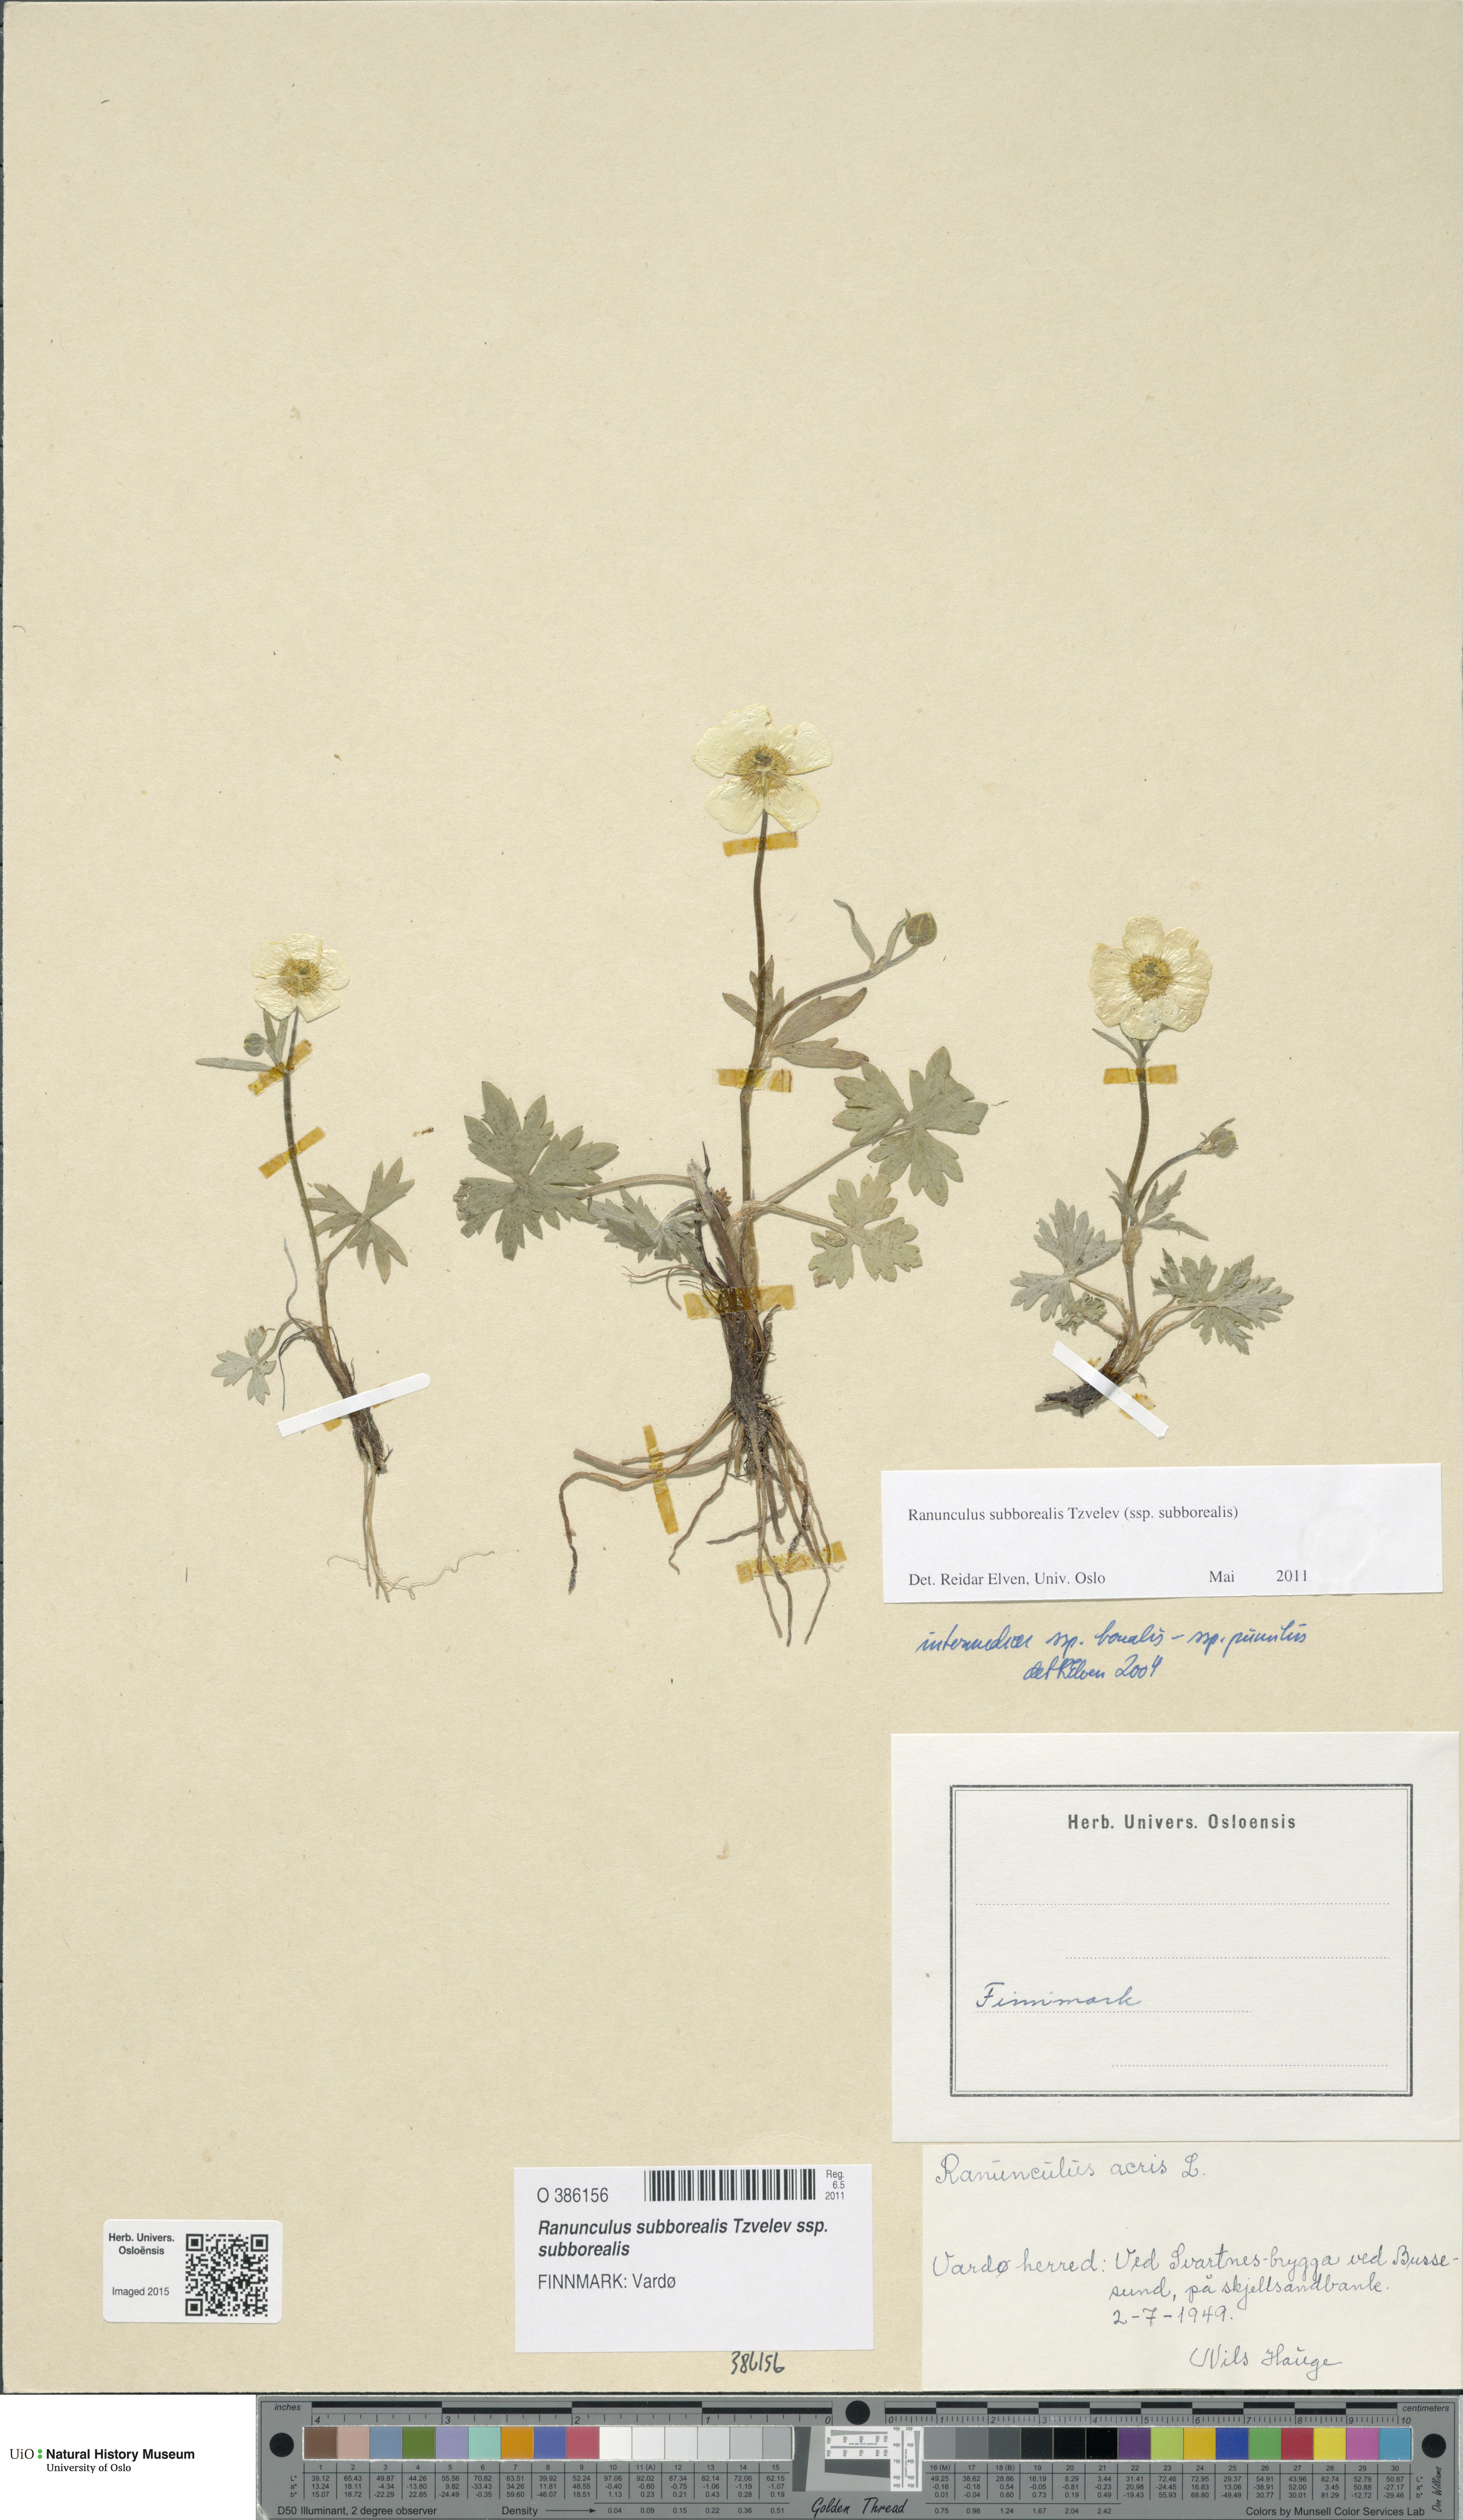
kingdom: Plantae
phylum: Tracheophyta
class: Magnoliopsida
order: Ranunculales
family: Ranunculaceae
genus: Ranunculus
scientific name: Ranunculus propinquus
